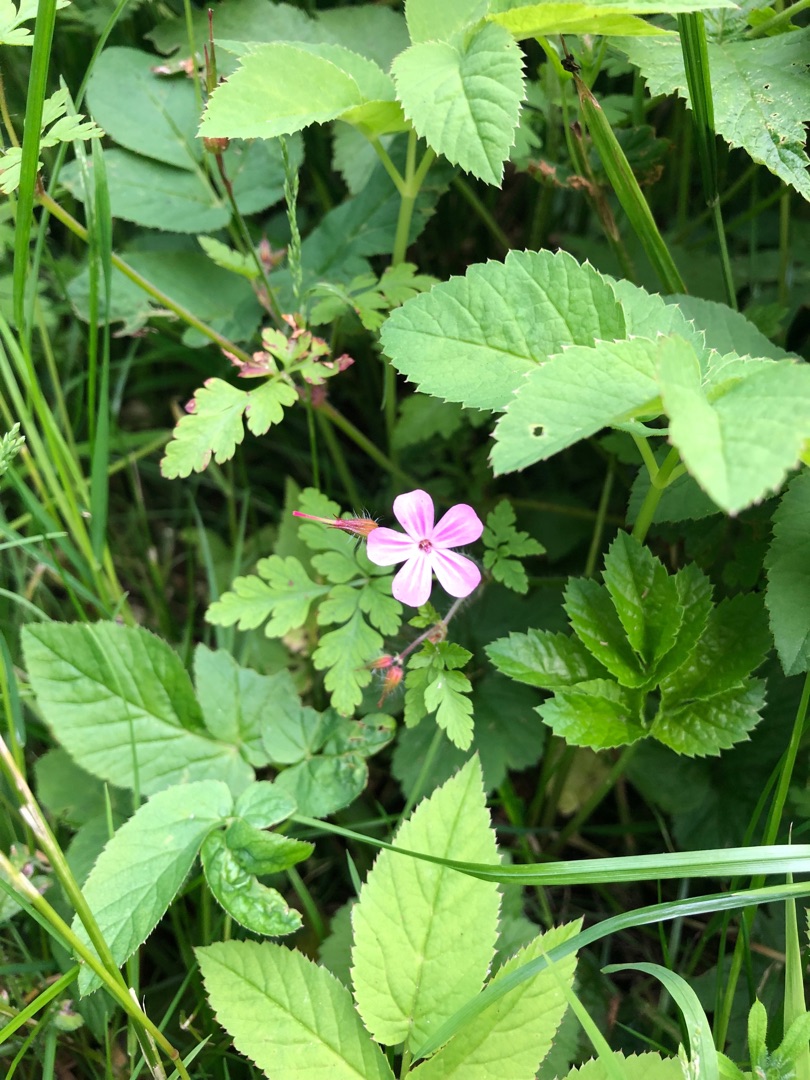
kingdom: Plantae
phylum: Tracheophyta
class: Magnoliopsida
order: Geraniales
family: Geraniaceae
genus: Geranium
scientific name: Geranium robertianum
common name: Stinkende storkenæb
